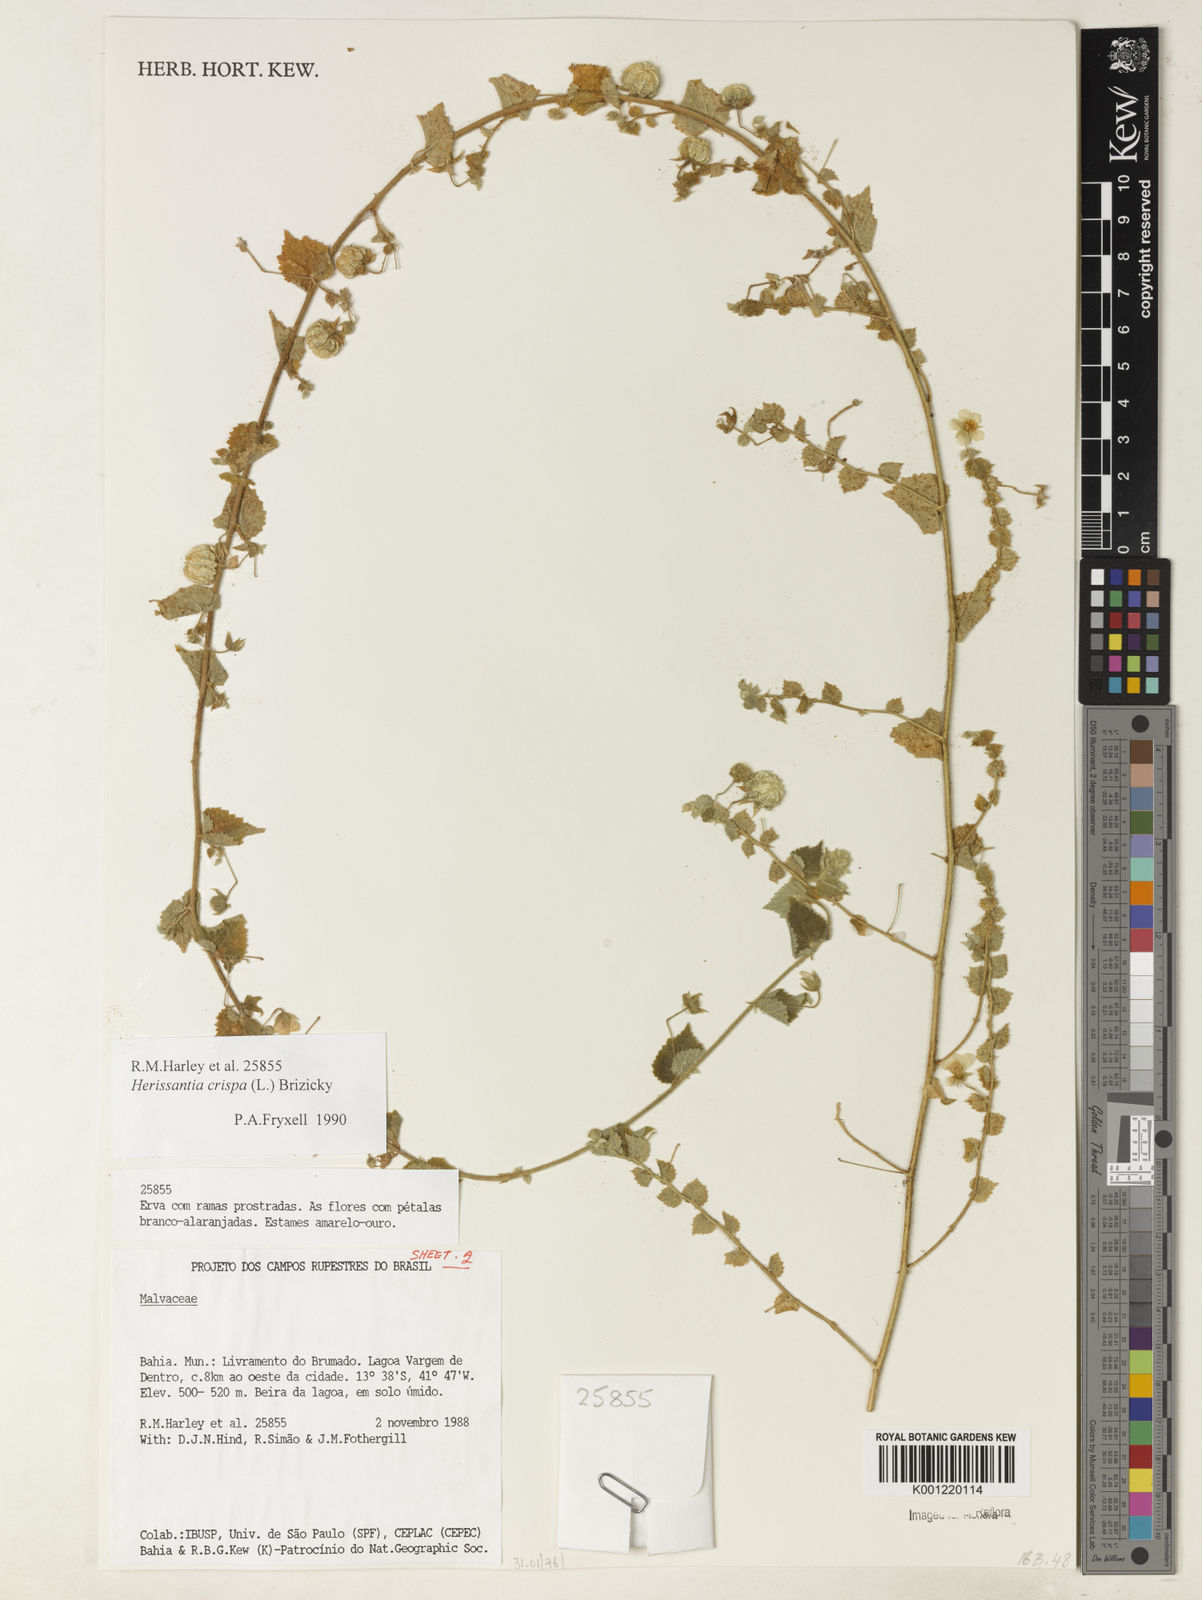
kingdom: Plantae
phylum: Tracheophyta
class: Magnoliopsida
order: Malvales
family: Malvaceae
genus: Herissantia
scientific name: Herissantia crispa
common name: Bladdermallow
